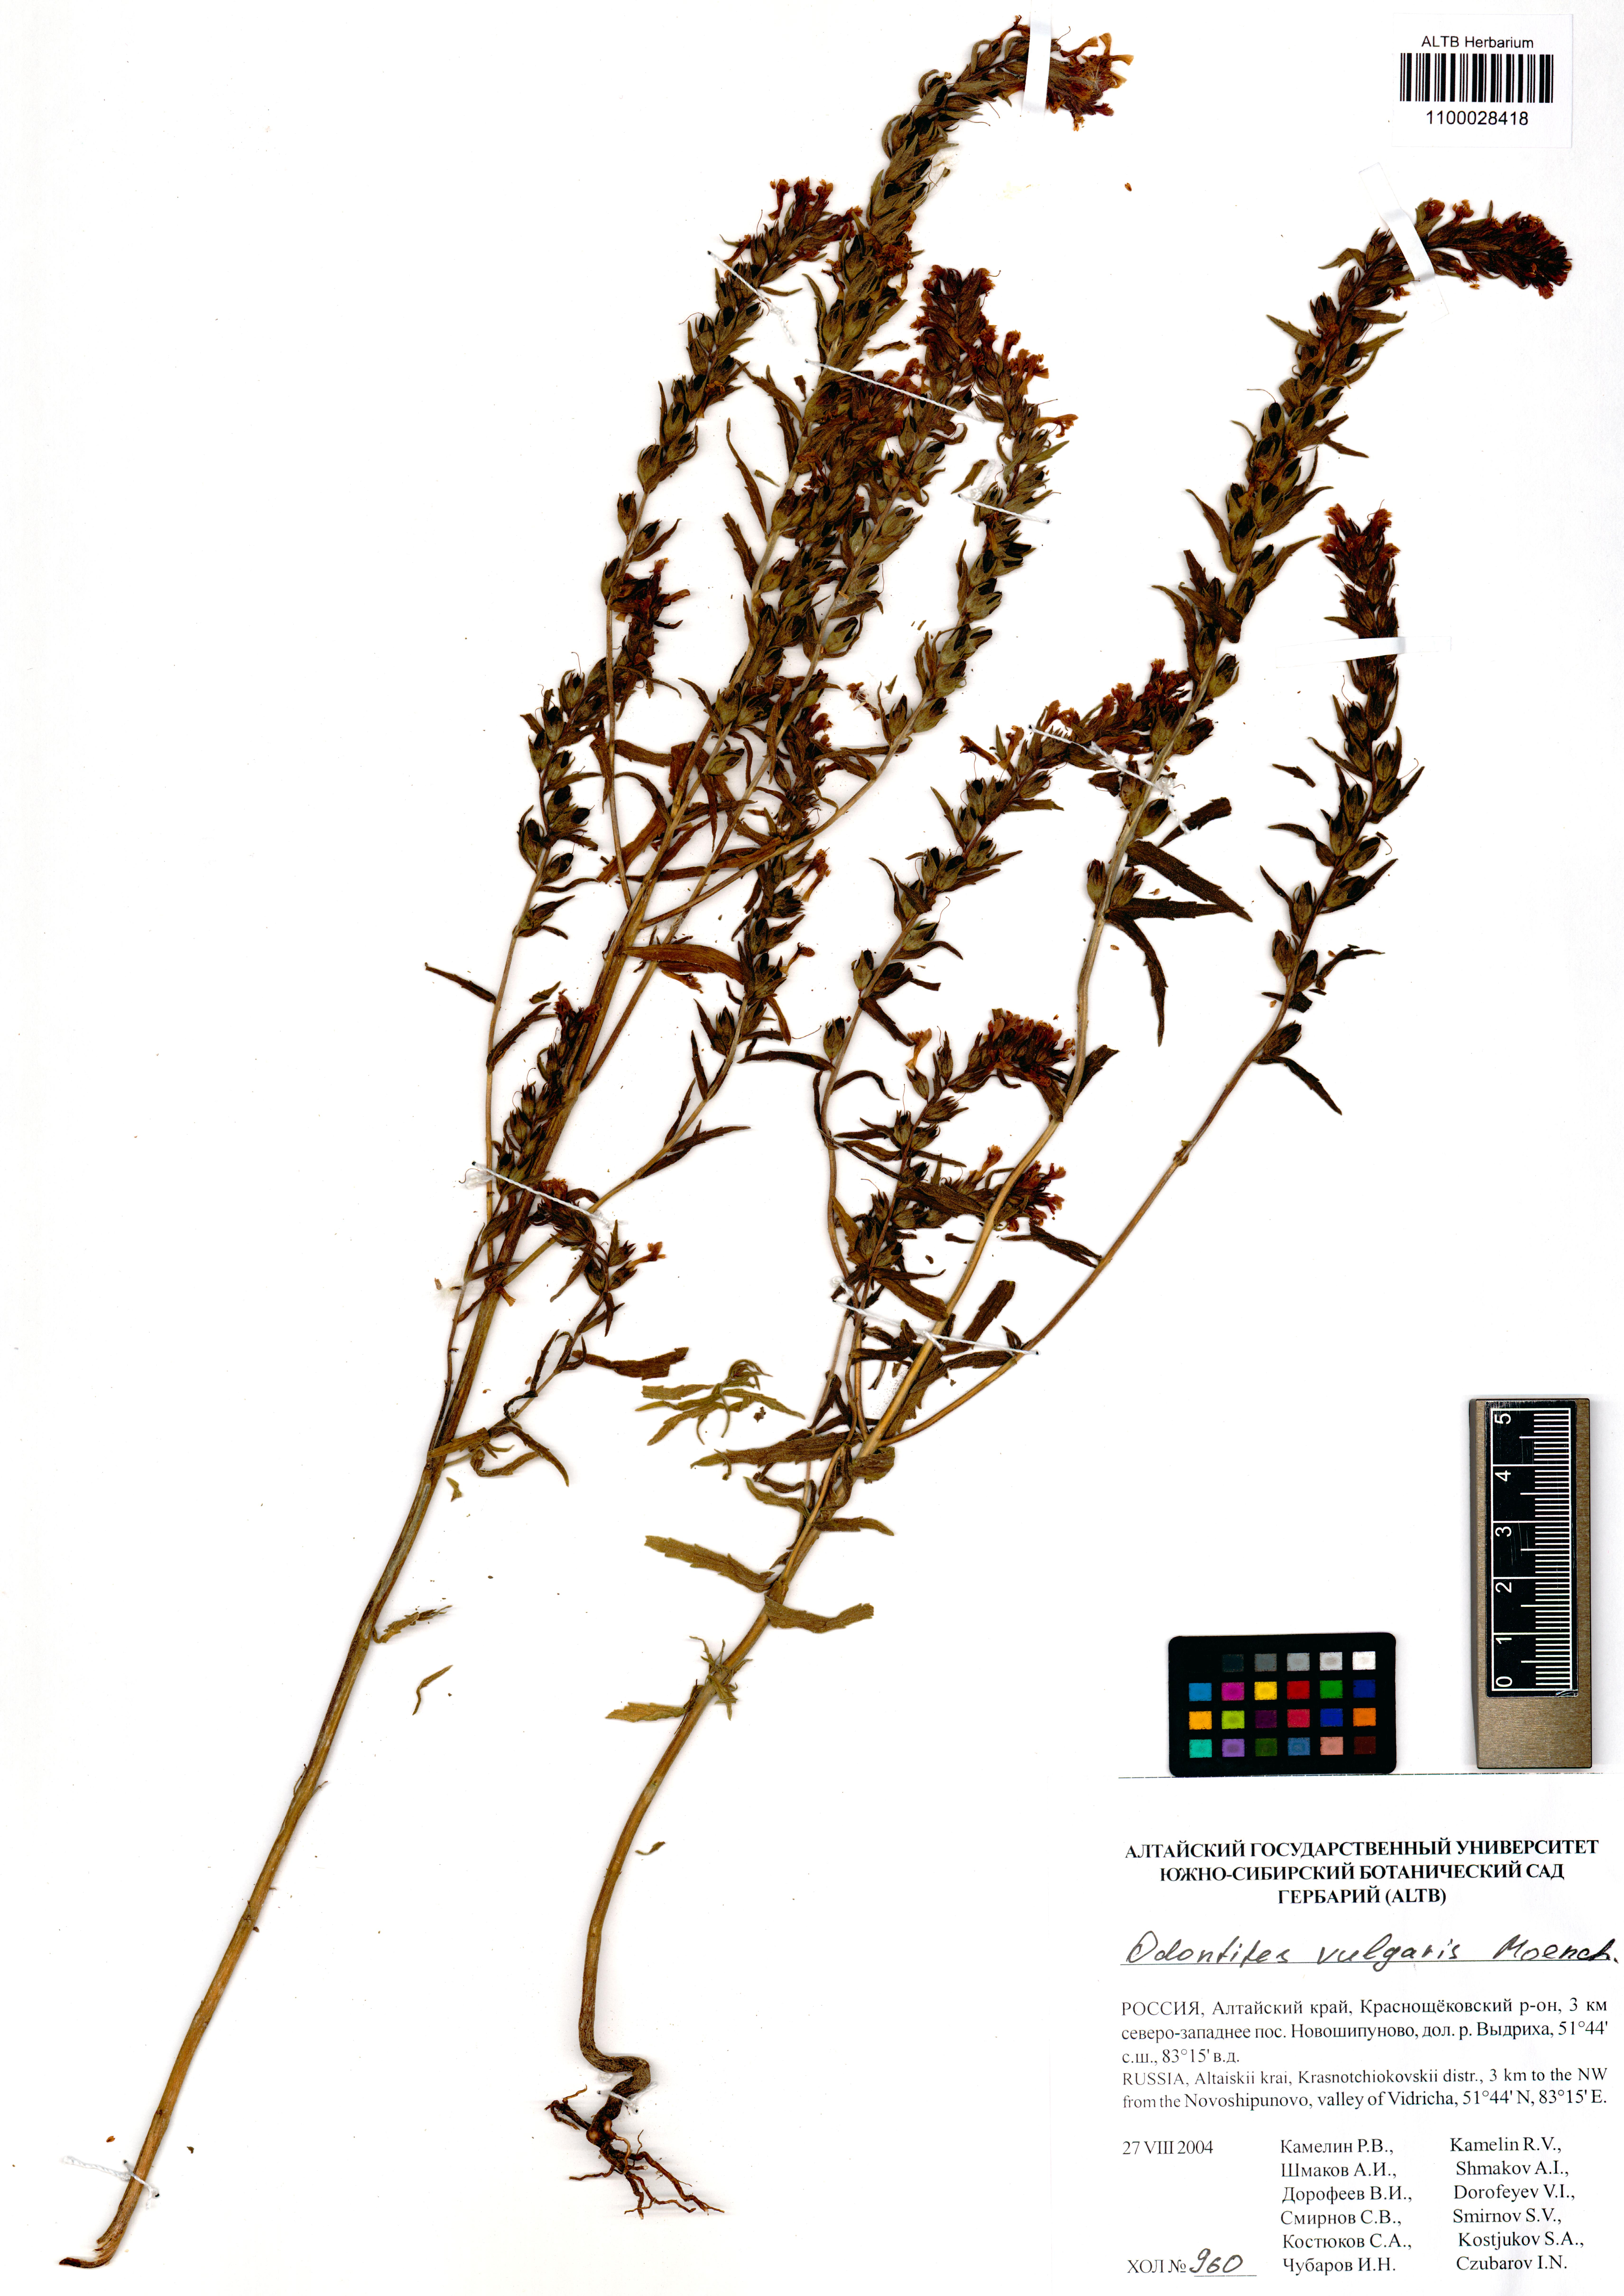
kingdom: Plantae
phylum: Tracheophyta
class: Magnoliopsida
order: Lamiales
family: Orobanchaceae
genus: Odontites
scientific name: Odontites vulgaris
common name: Broomrape
